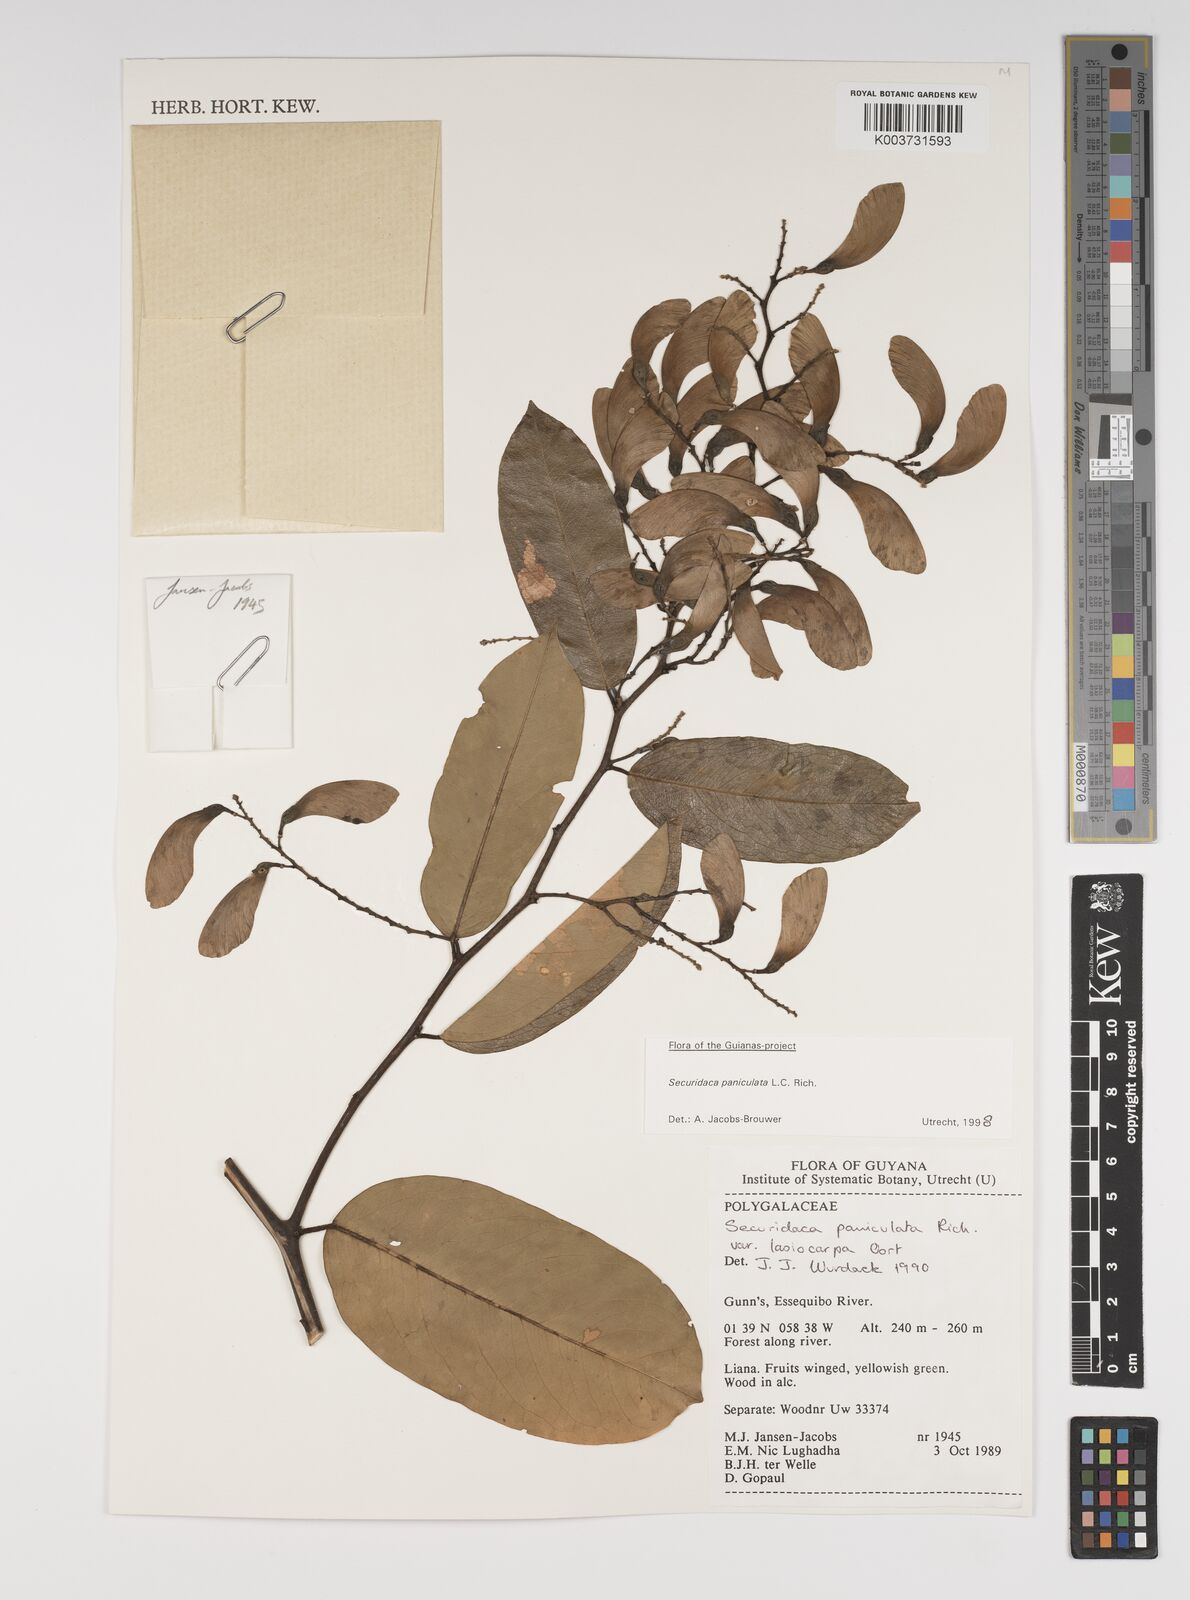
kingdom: Plantae
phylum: Tracheophyta
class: Magnoliopsida
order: Fabales
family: Polygalaceae
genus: Securidaca
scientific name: Securidaca paniculata
